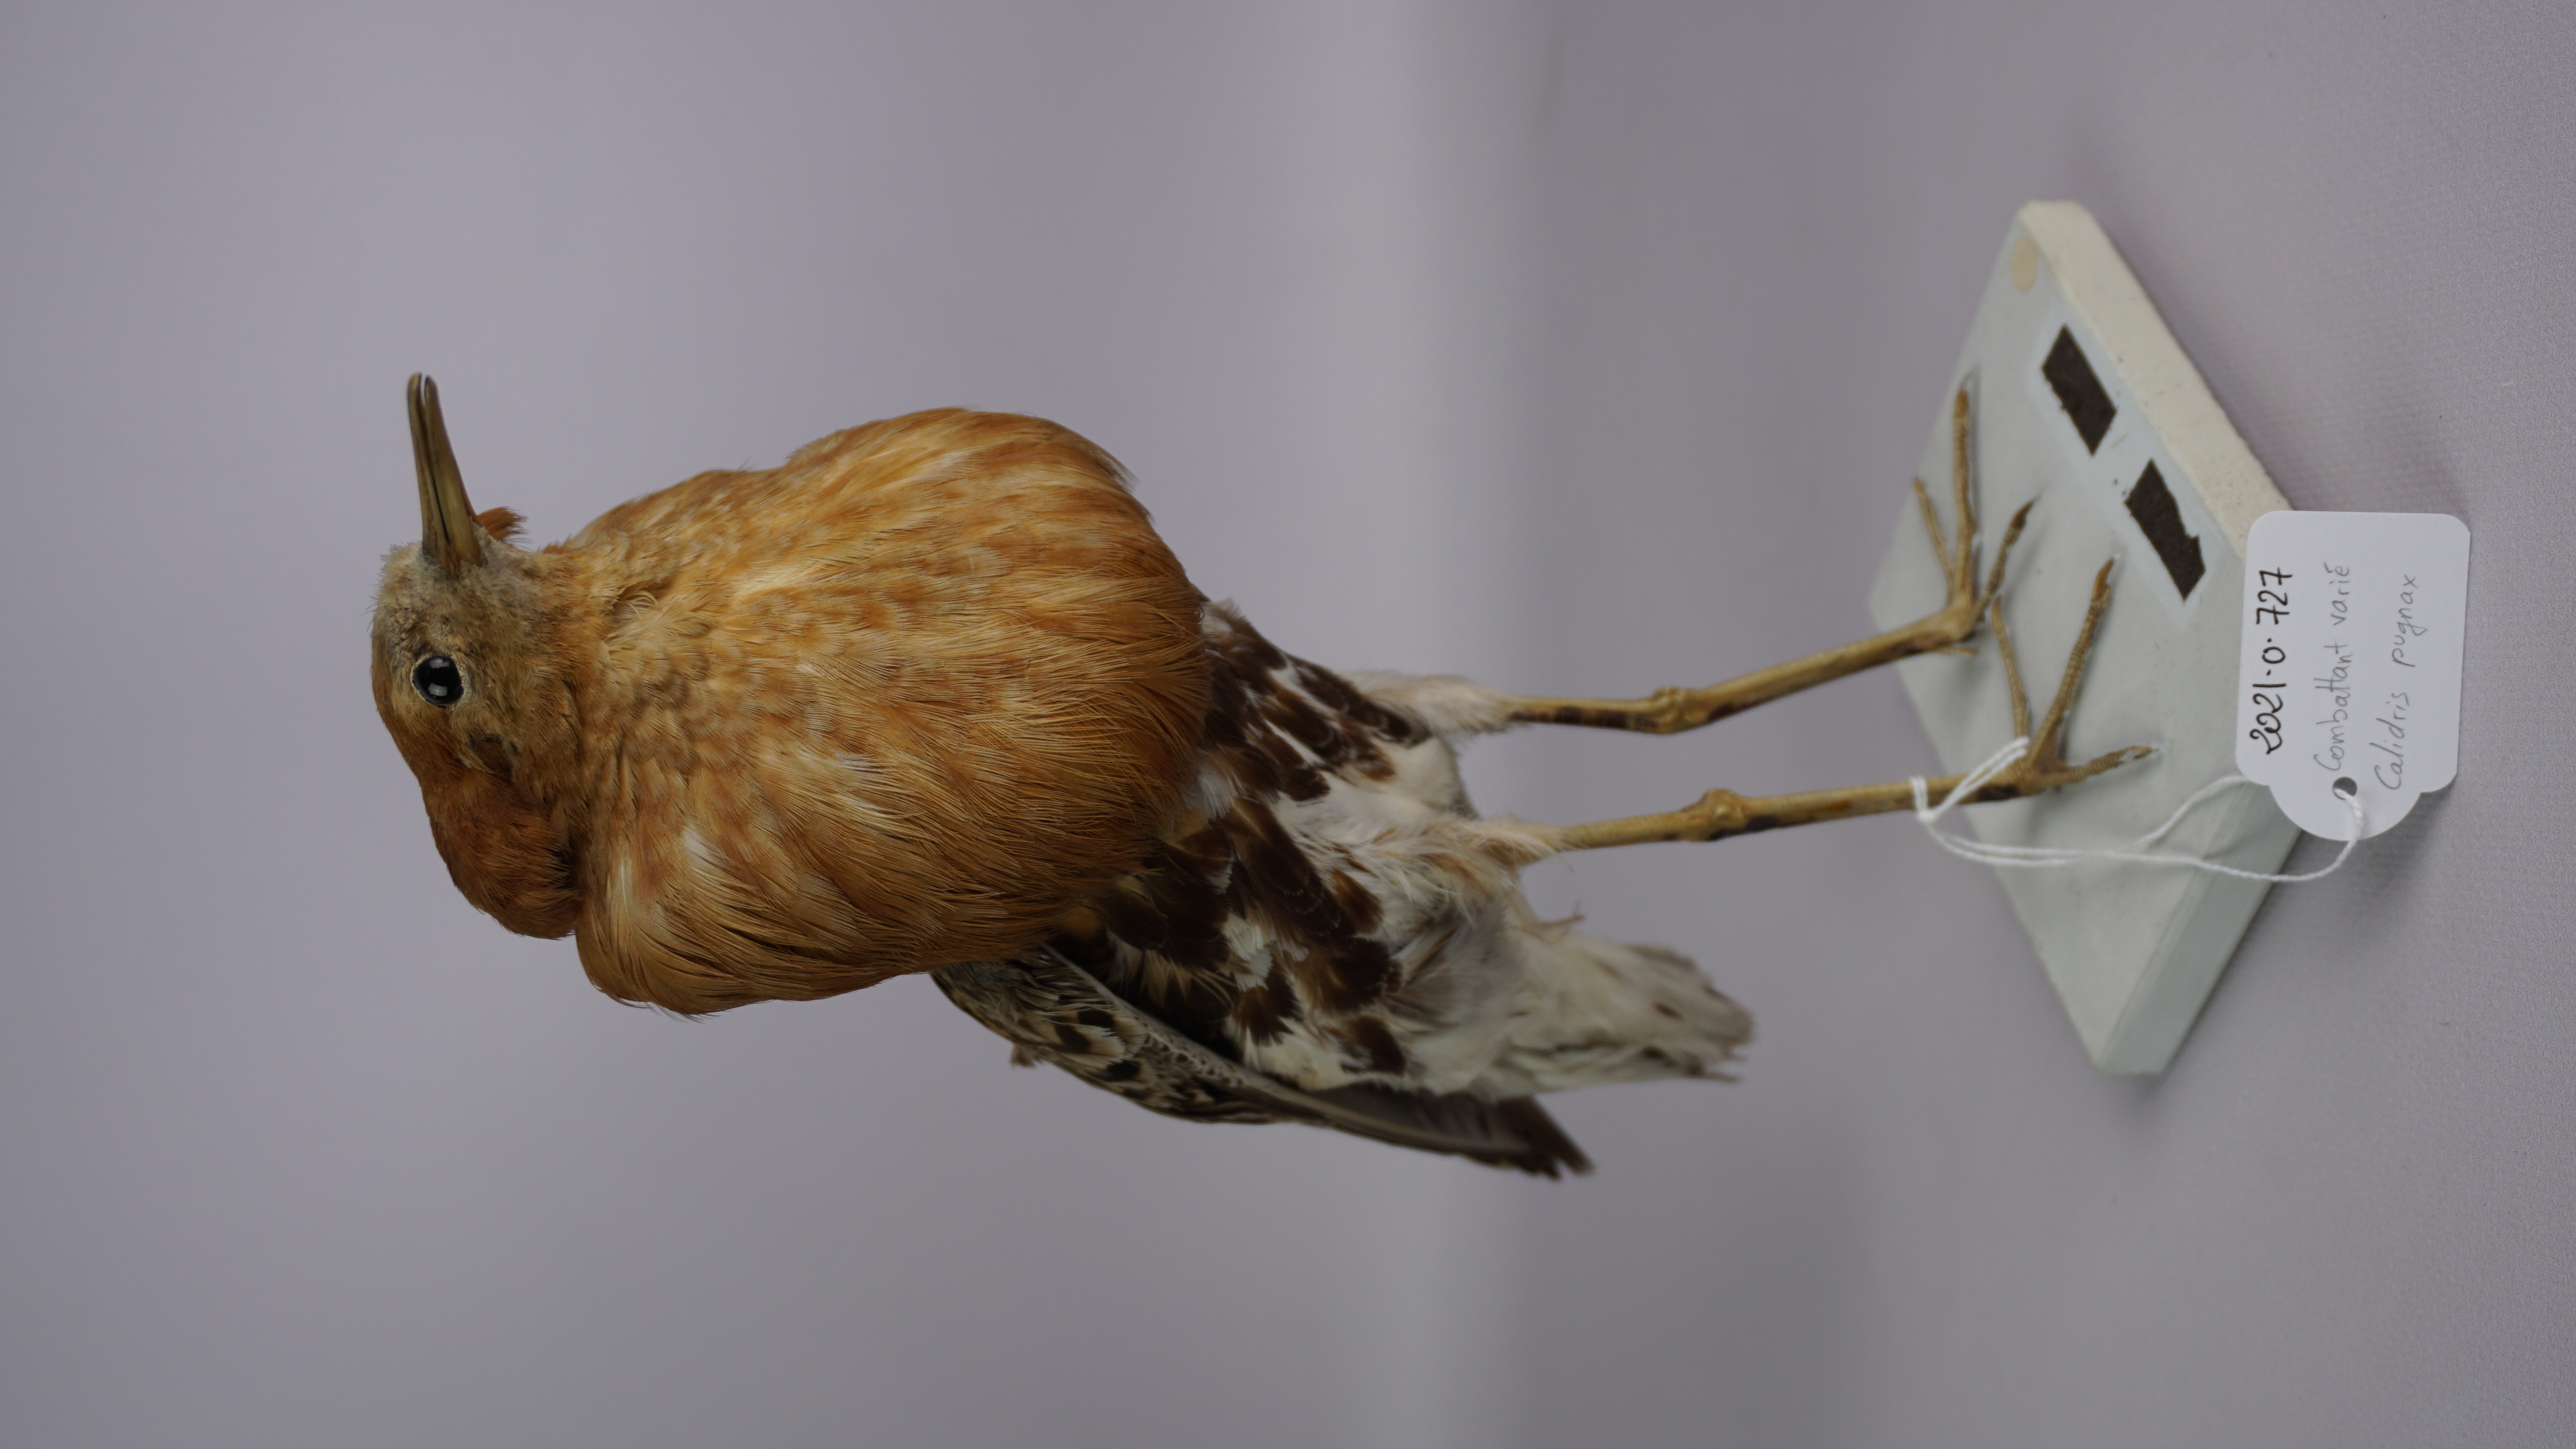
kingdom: Animalia
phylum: Chordata
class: Aves
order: Charadriiformes
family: Scolopacidae
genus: Calidris
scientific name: Calidris pugnax
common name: Ruff
